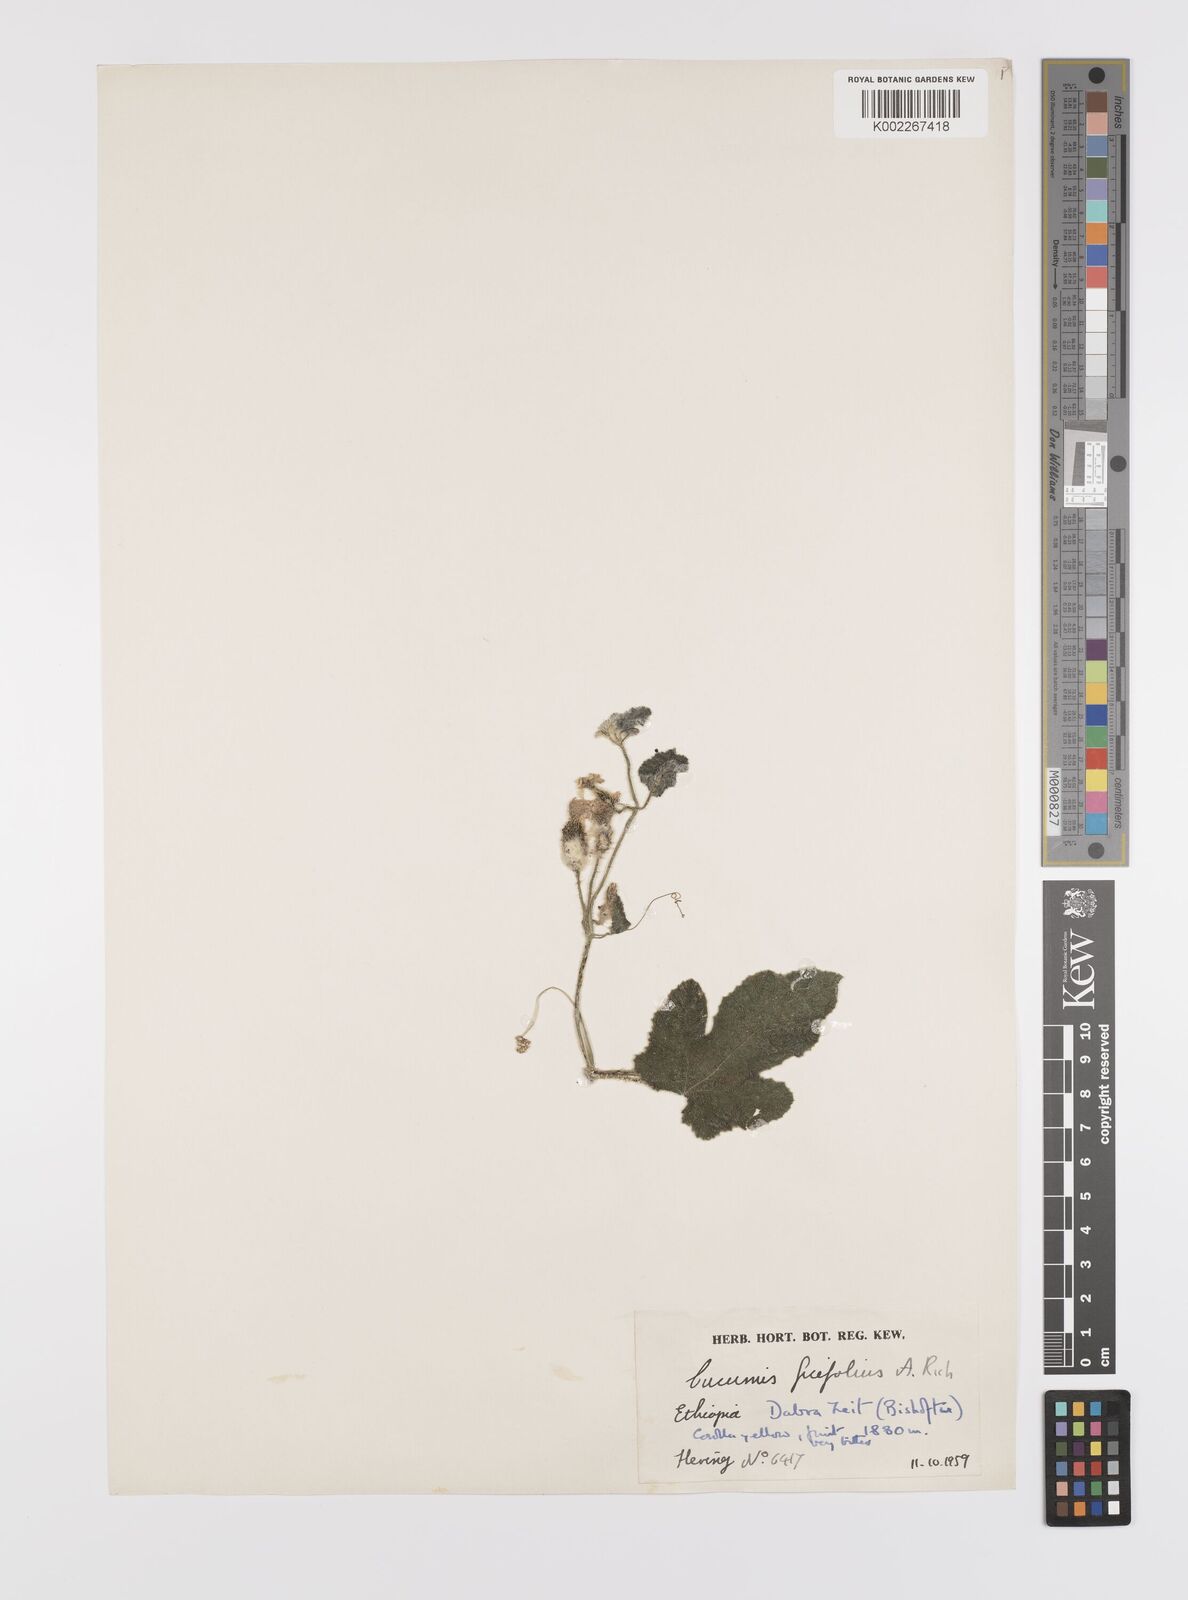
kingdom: Plantae
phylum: Tracheophyta
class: Magnoliopsida
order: Cucurbitales
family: Cucurbitaceae
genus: Cucumis
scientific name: Cucumis ficifolius
